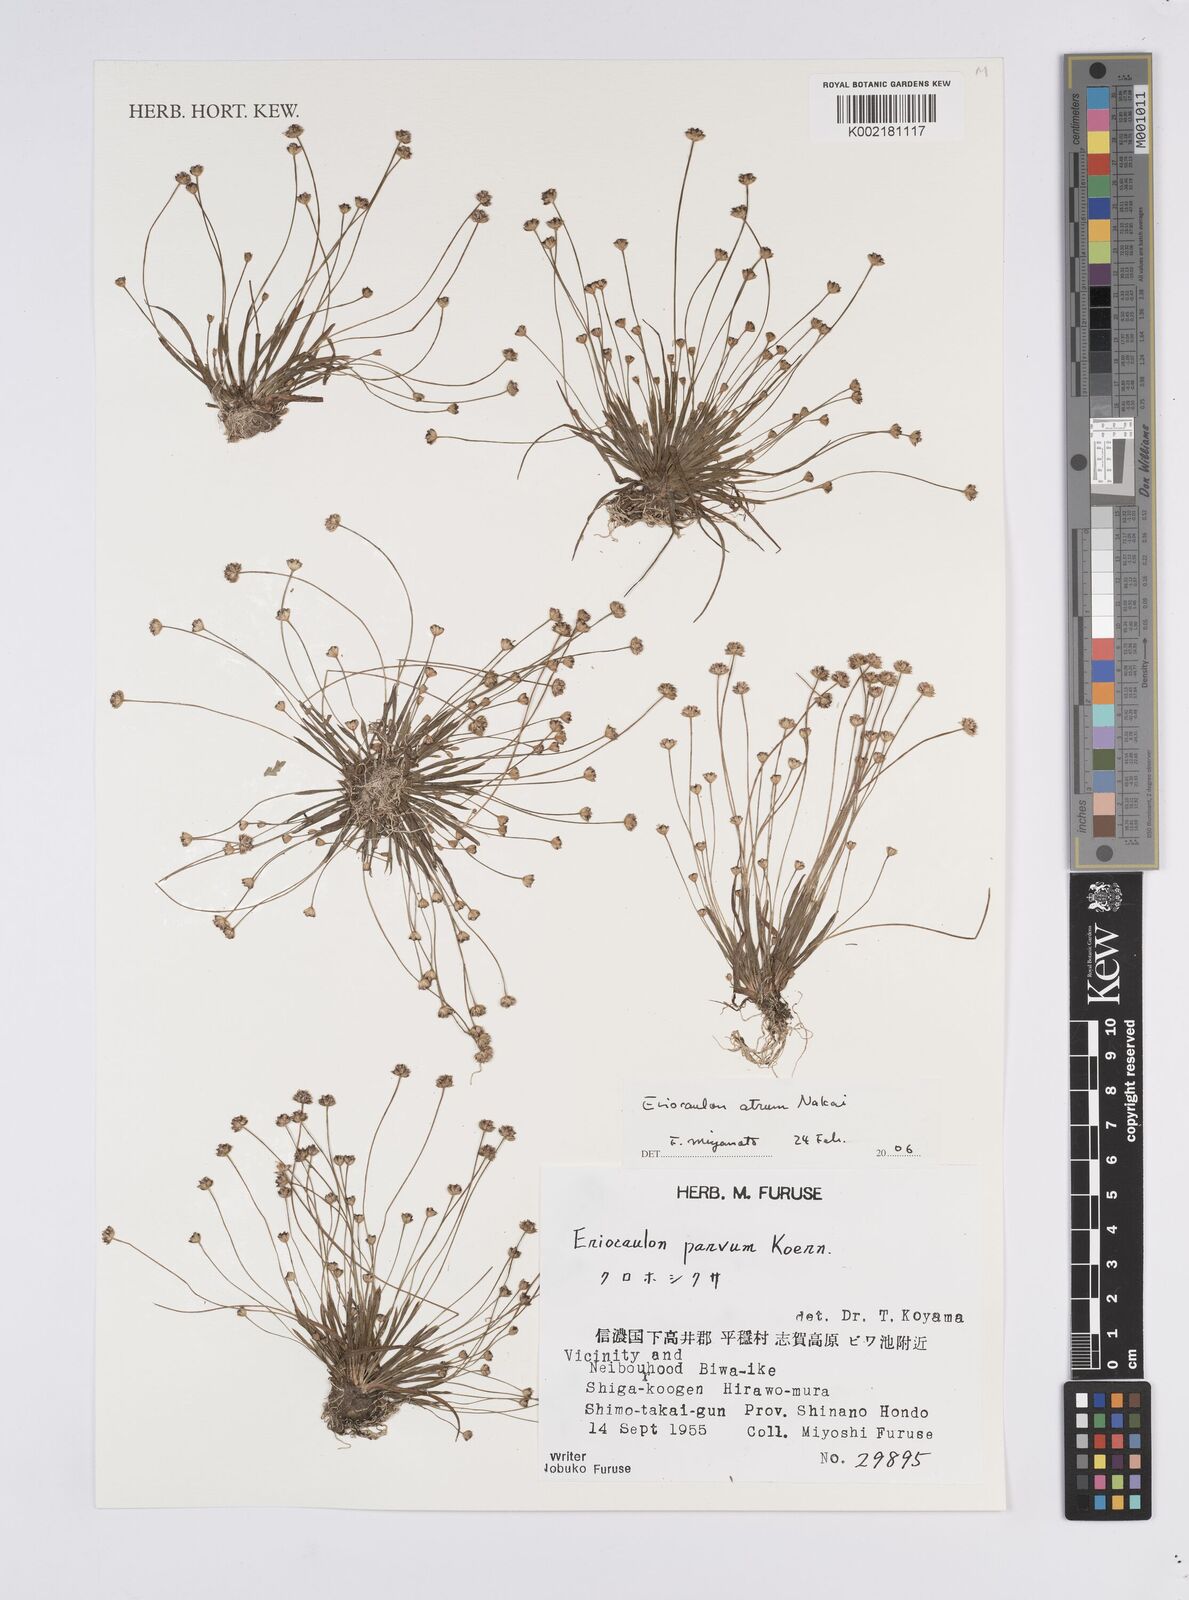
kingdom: Plantae
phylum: Tracheophyta
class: Liliopsida
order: Poales
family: Eriocaulaceae
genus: Eriocaulon
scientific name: Eriocaulon atrum
